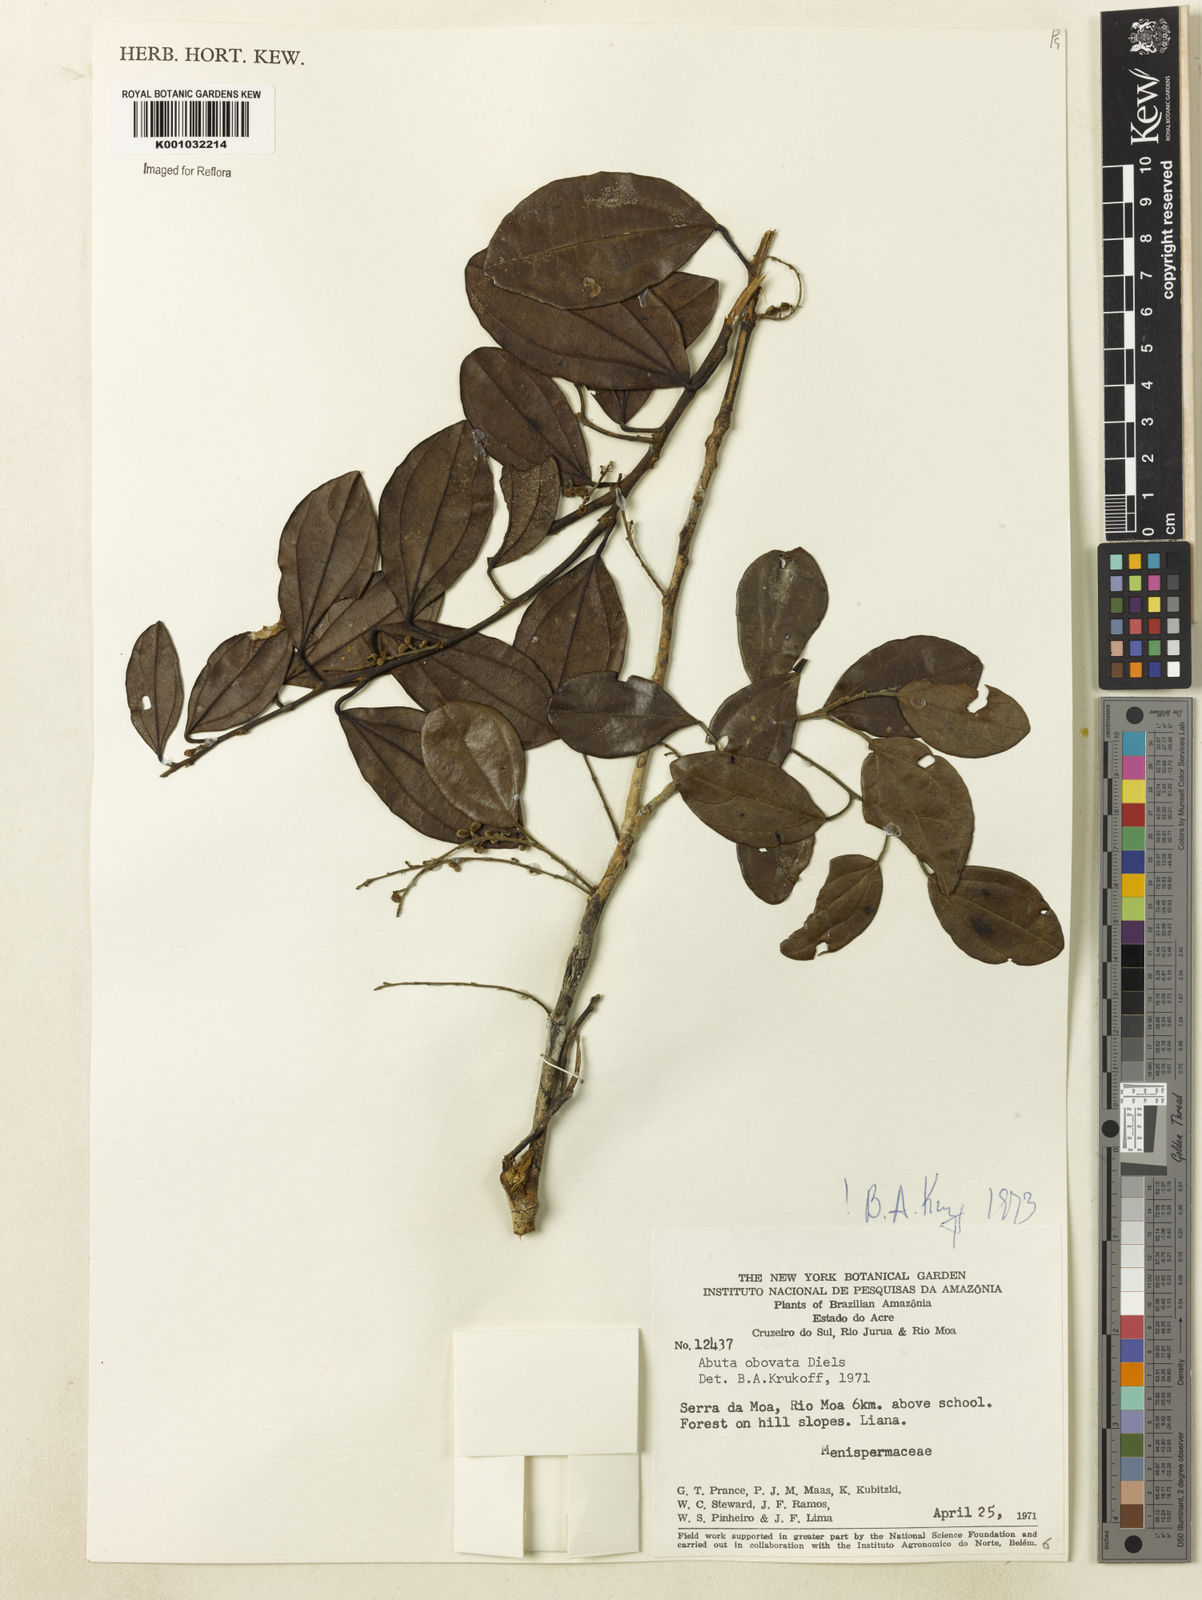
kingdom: Plantae
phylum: Tracheophyta
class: Magnoliopsida
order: Ranunculales
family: Menispermaceae
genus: Abuta
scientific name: Abuta obovata
